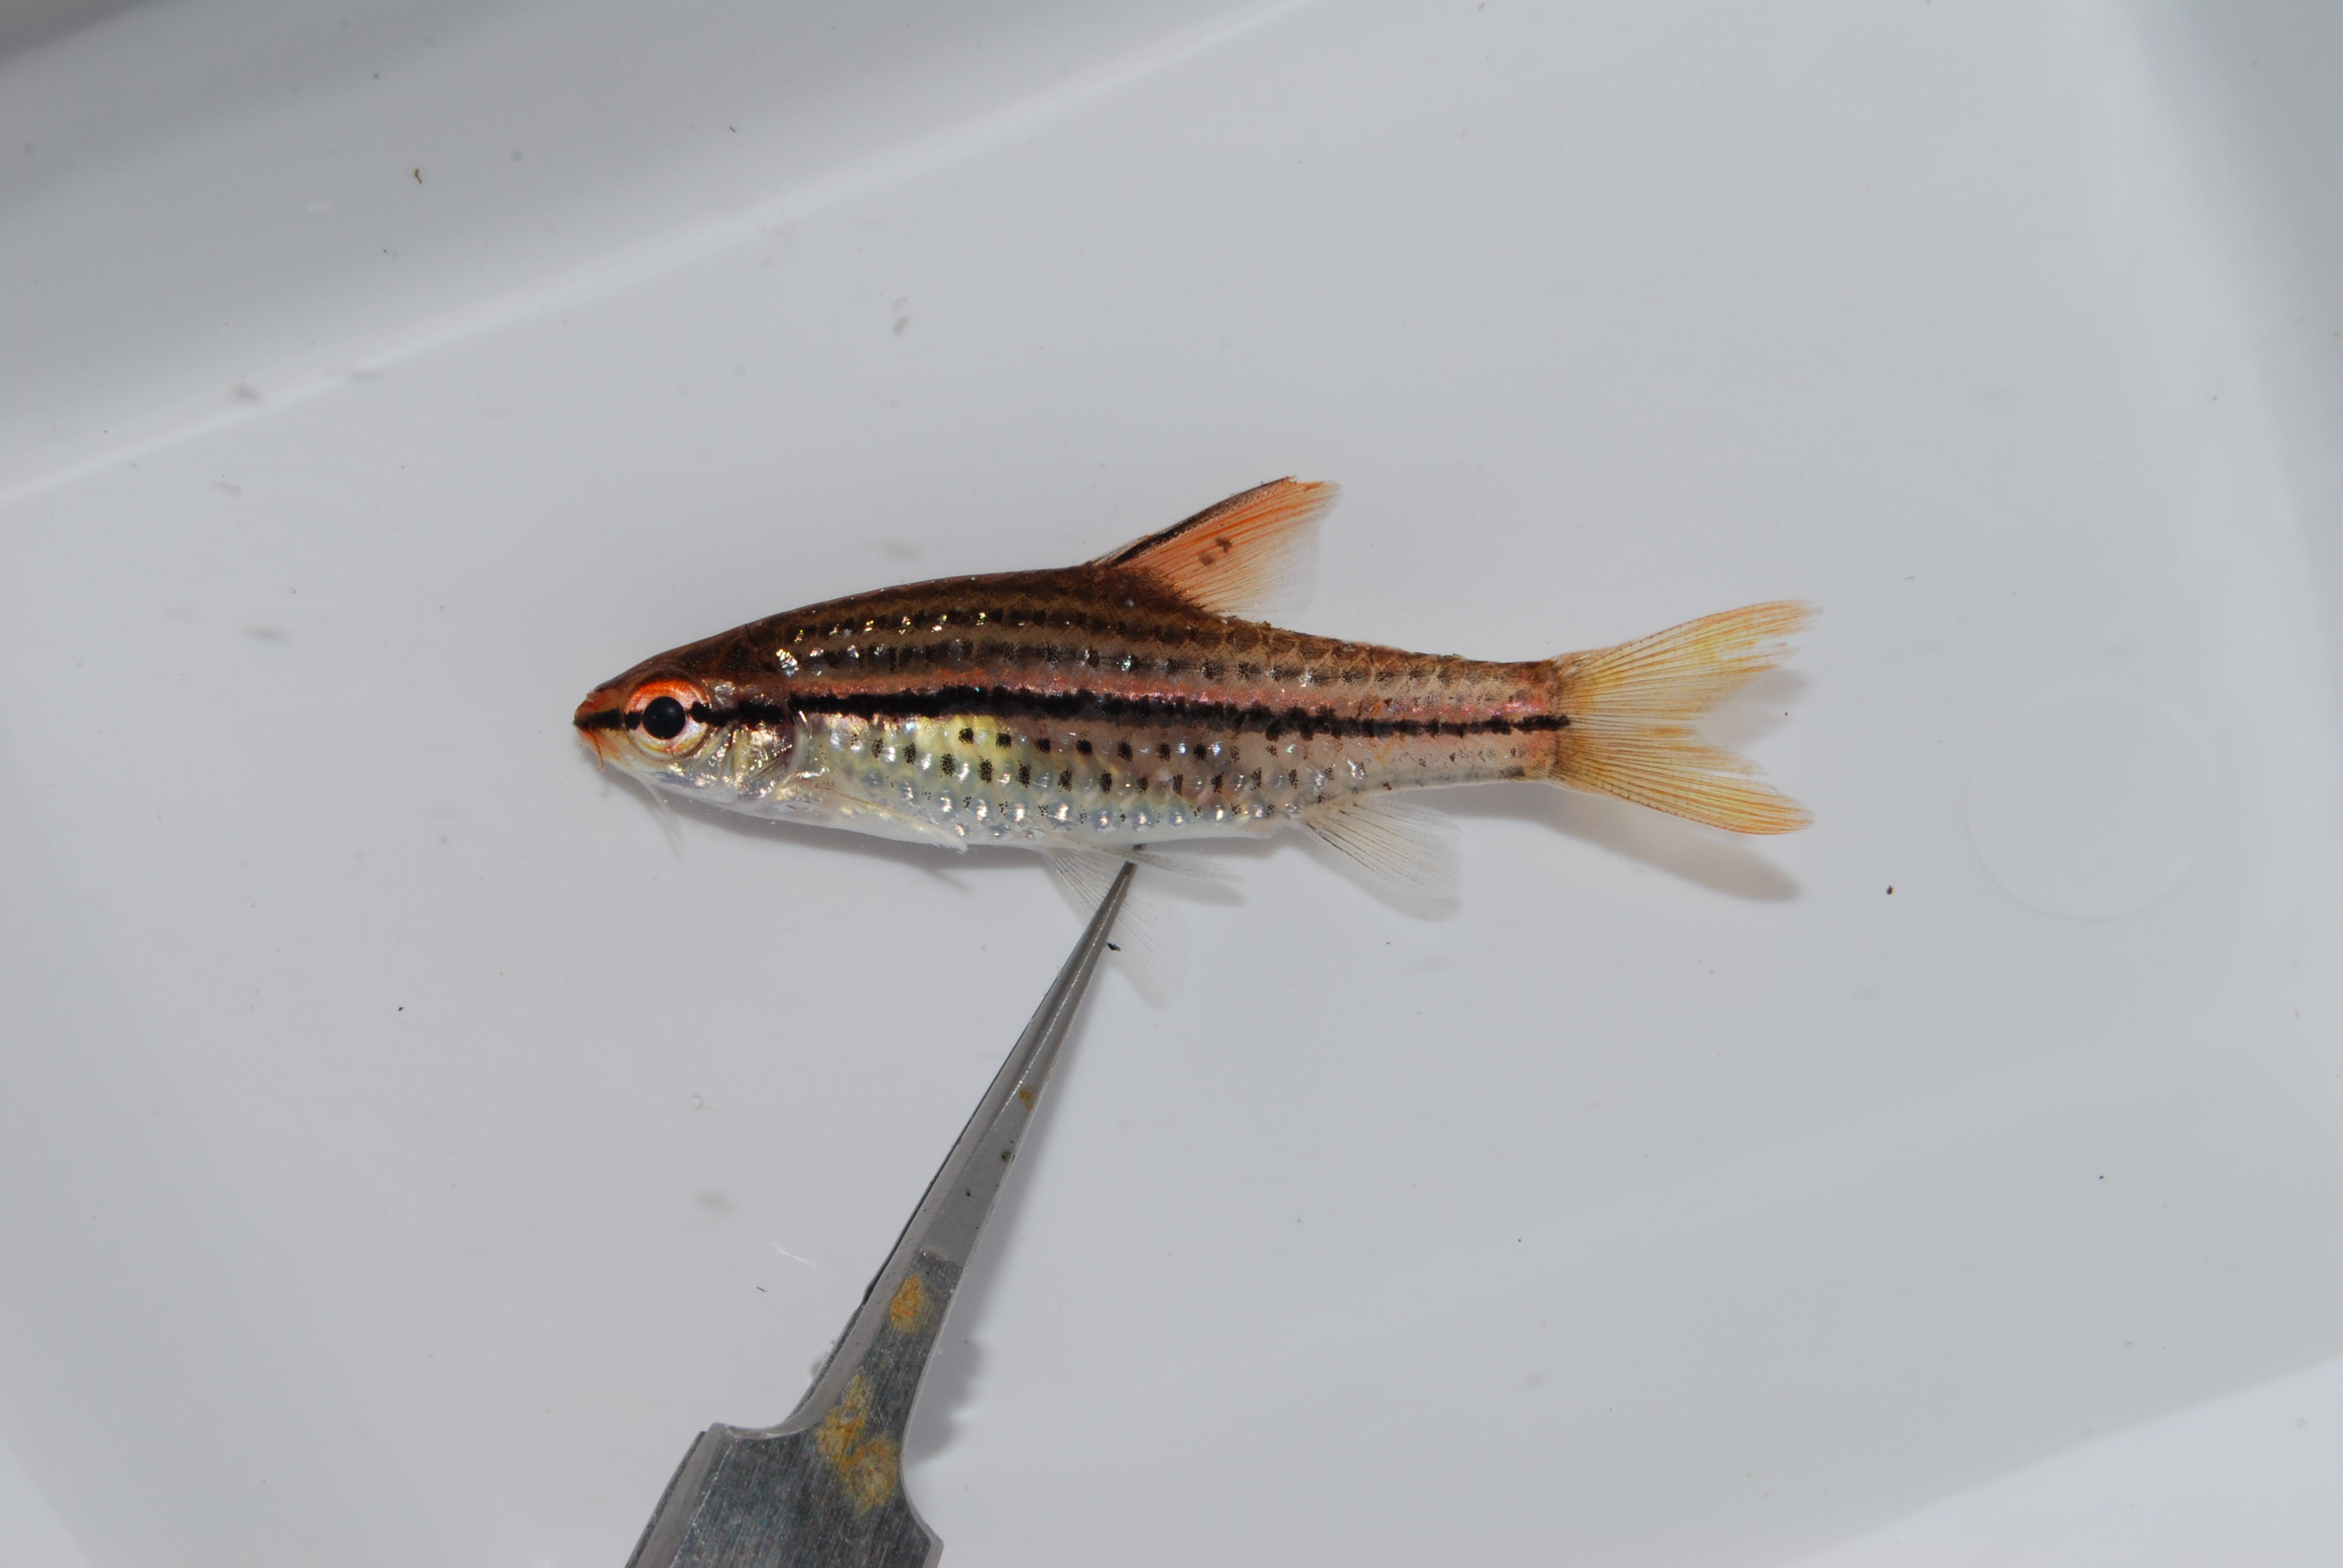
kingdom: Animalia
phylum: Chordata
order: Osteoglossiformes
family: Mormyridae
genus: Pollimyrus
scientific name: Pollimyrus
